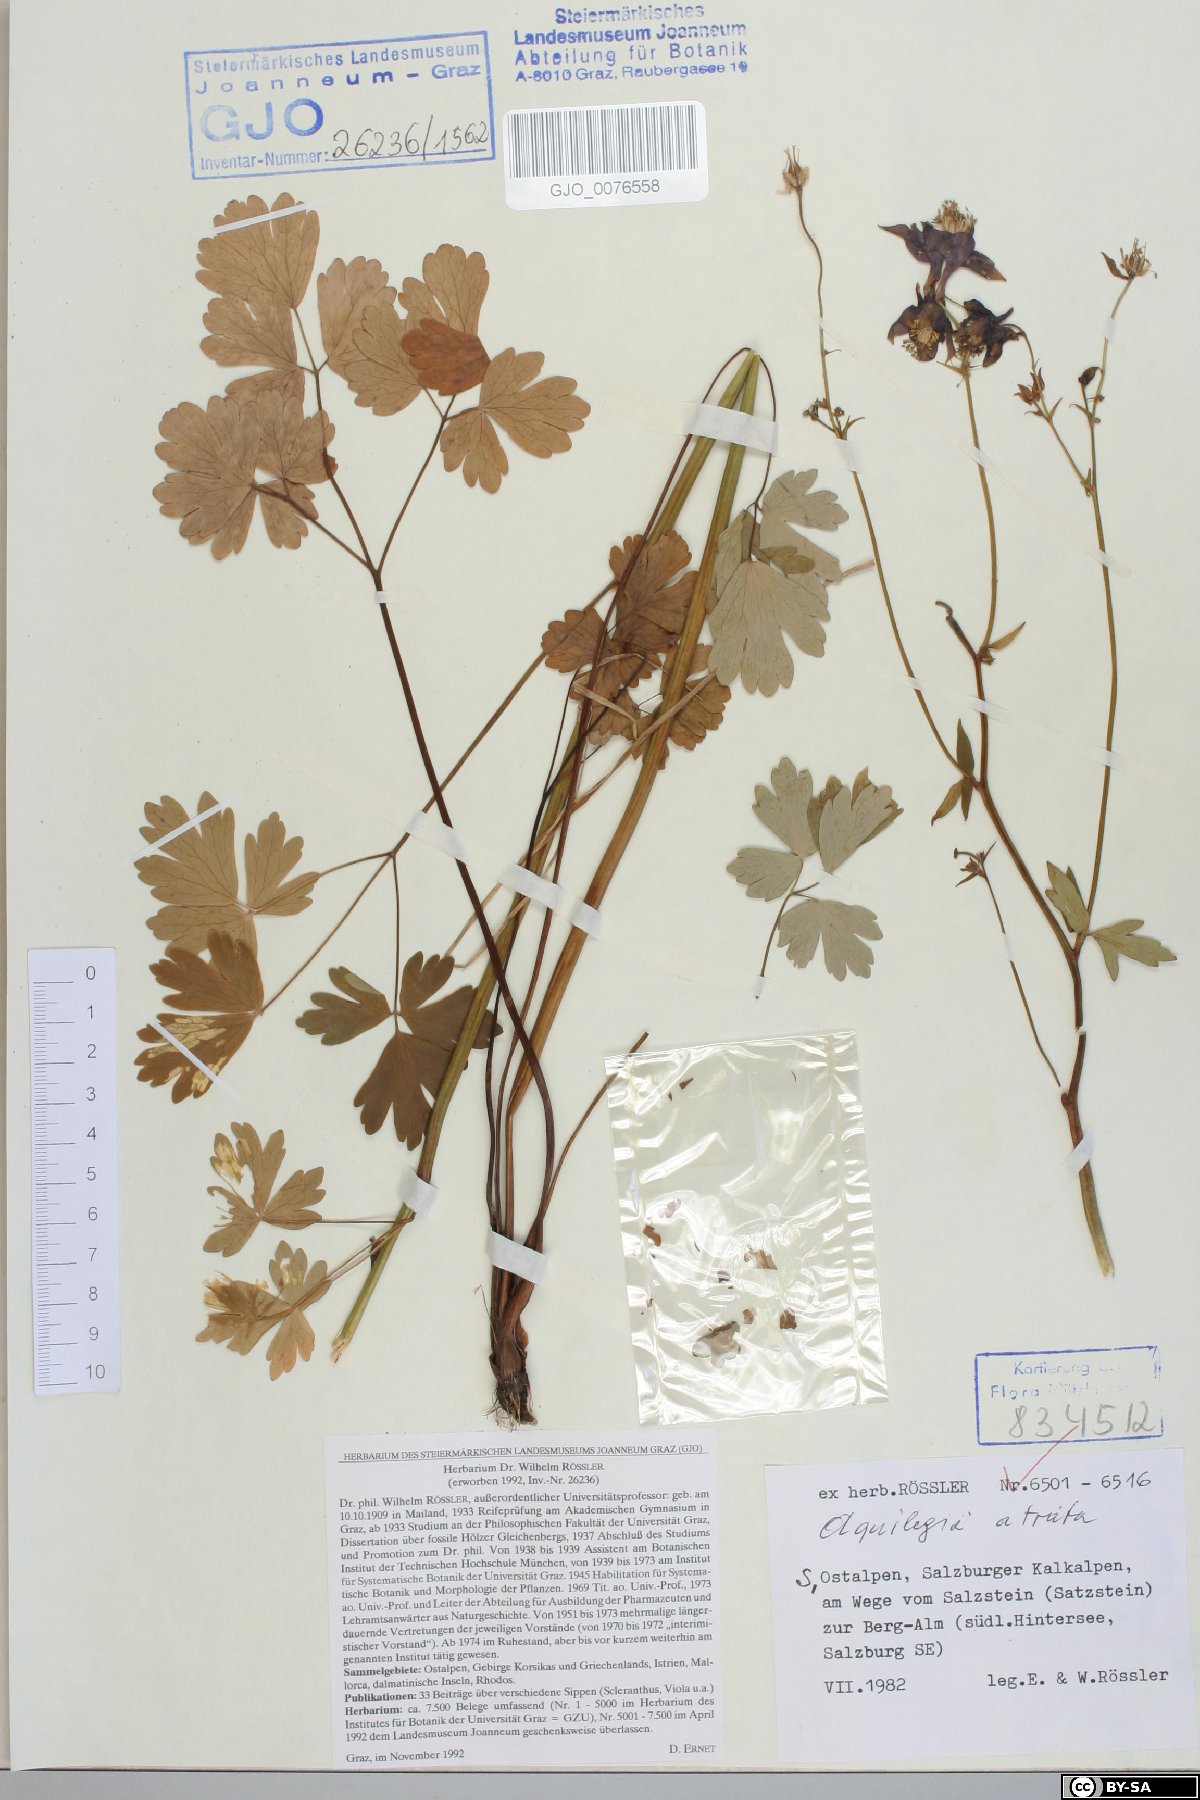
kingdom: Plantae
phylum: Tracheophyta
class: Magnoliopsida
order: Ranunculales
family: Ranunculaceae
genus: Aquilegia
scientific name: Aquilegia atrata
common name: Dark columbine
